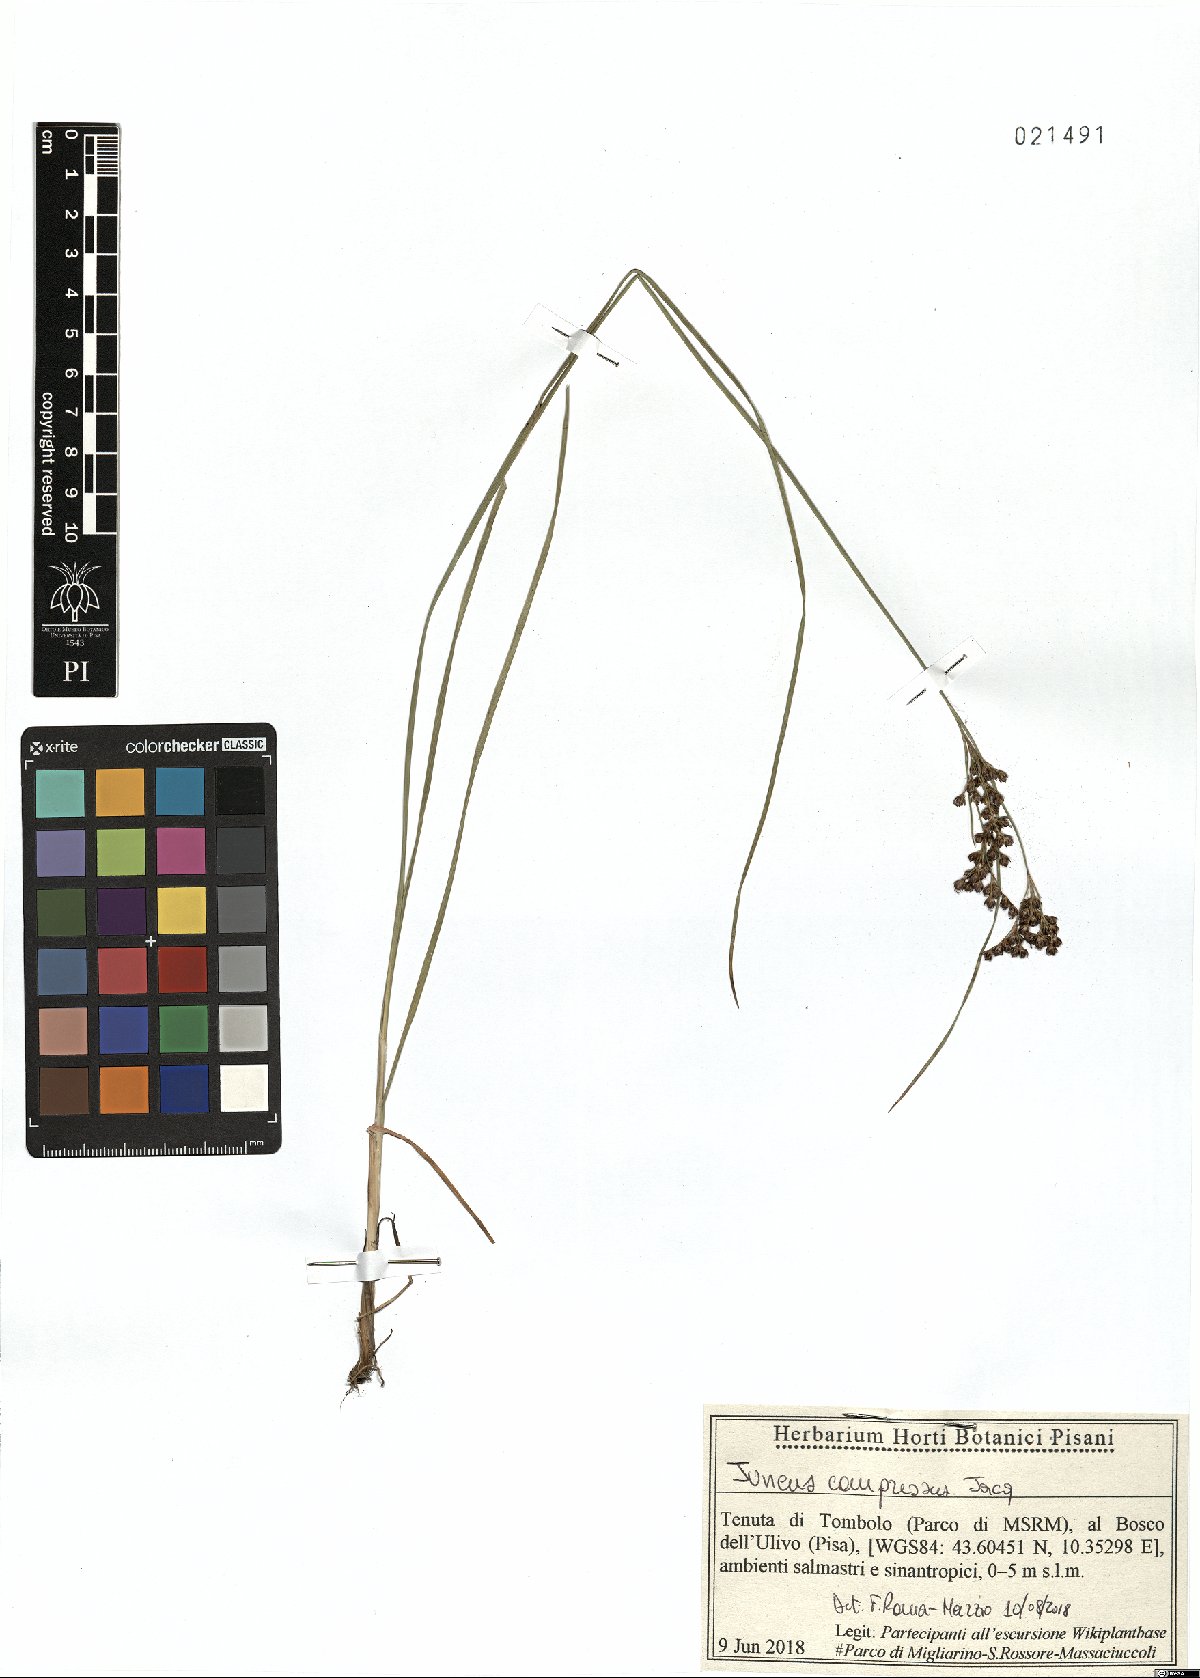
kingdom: Plantae
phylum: Tracheophyta
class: Liliopsida
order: Poales
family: Juncaceae
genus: Juncus
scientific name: Juncus compressus
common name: Round-fruited rush
